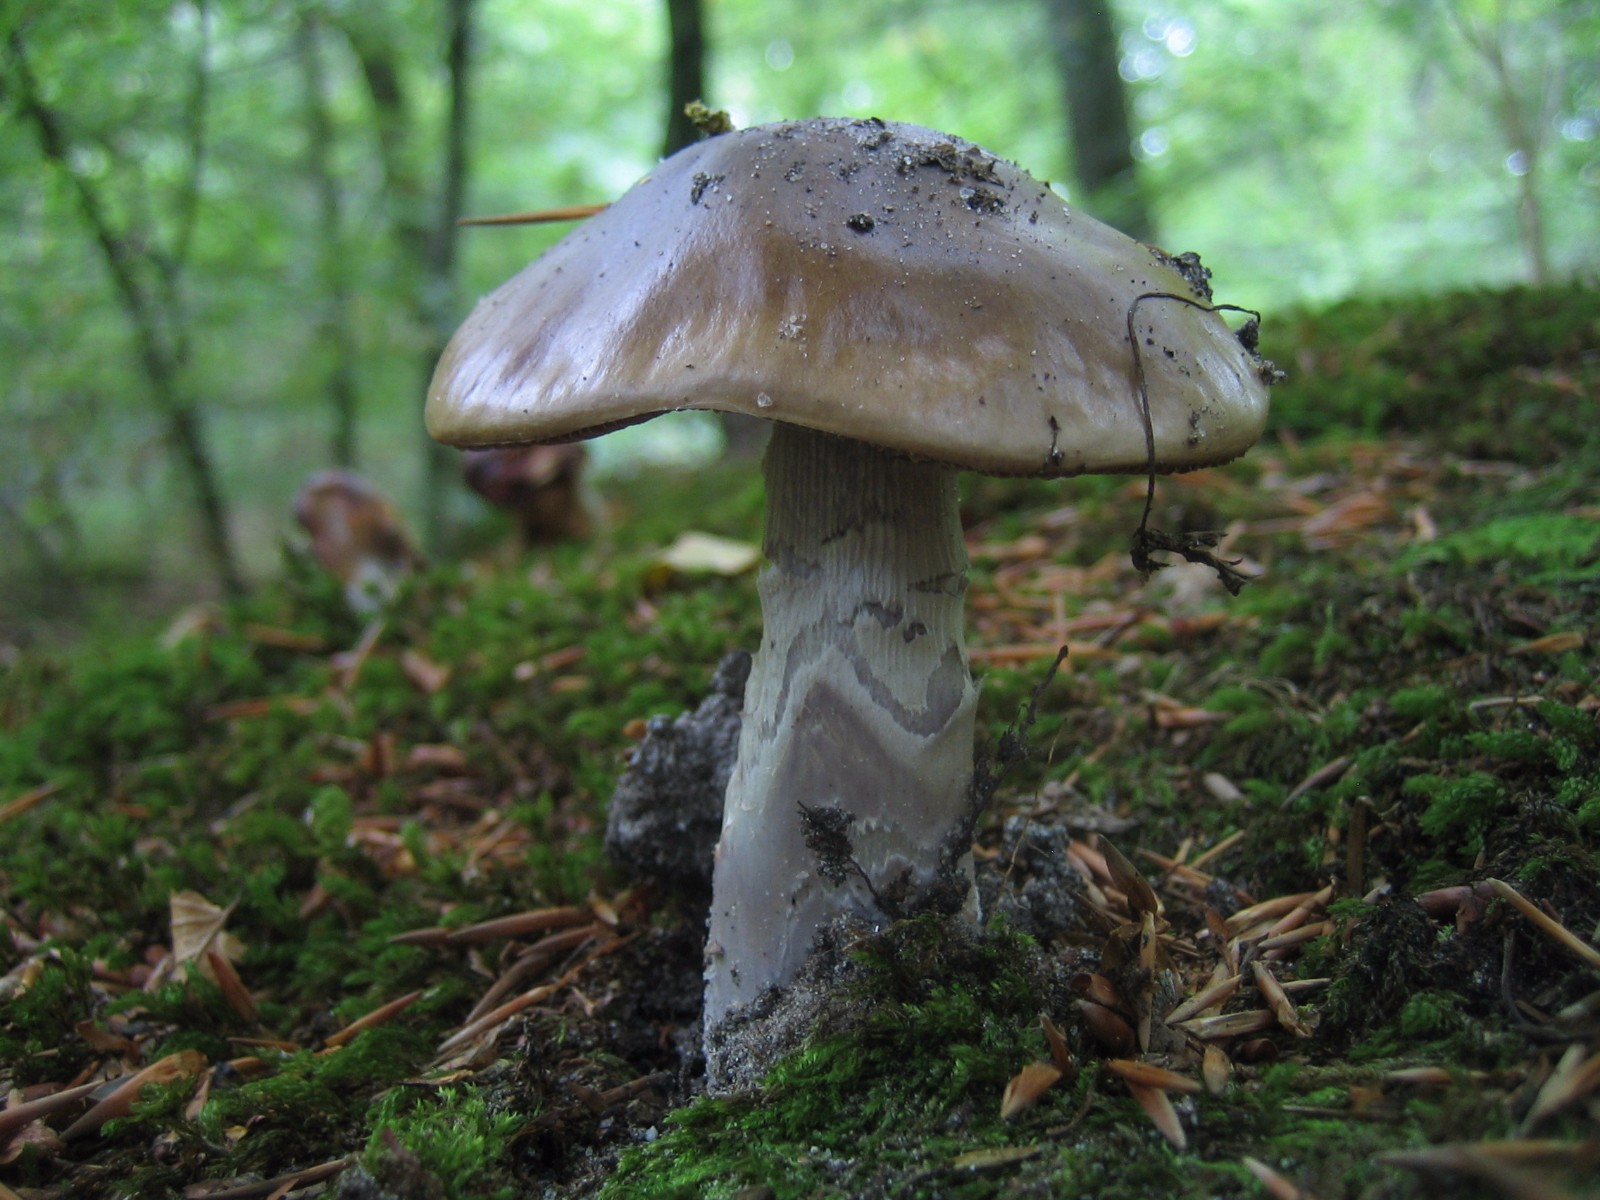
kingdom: Fungi
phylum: Basidiomycota
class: Agaricomycetes
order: Agaricales
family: Cortinariaceae
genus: Cortinarius
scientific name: Cortinarius elatior
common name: høj slørhat
